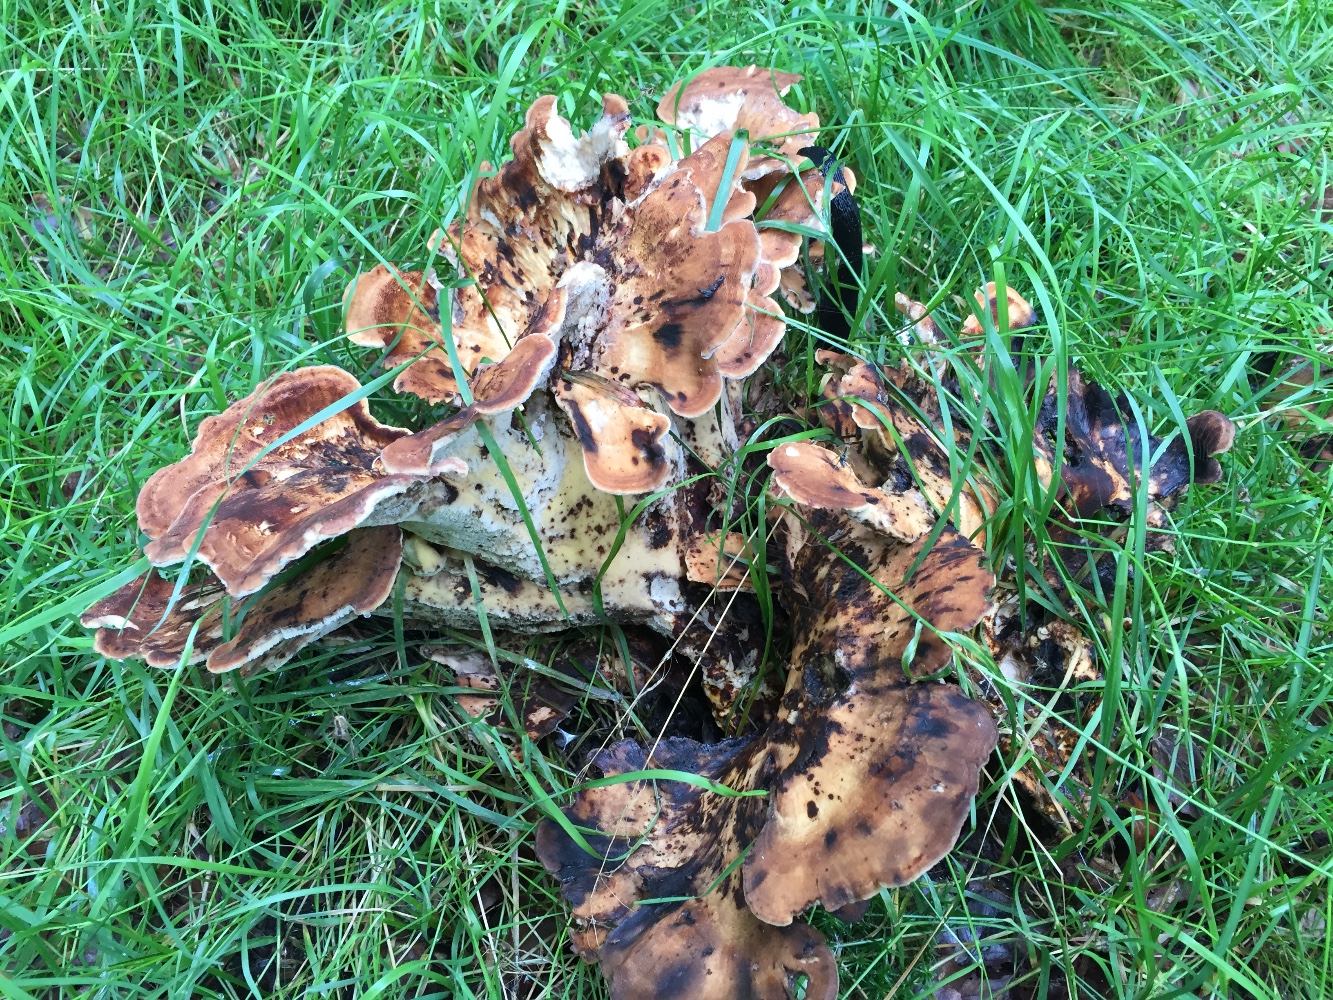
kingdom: Fungi
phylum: Basidiomycota
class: Agaricomycetes
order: Polyporales
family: Meripilaceae
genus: Meripilus
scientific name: Meripilus giganteus
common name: kæmpeporesvamp
